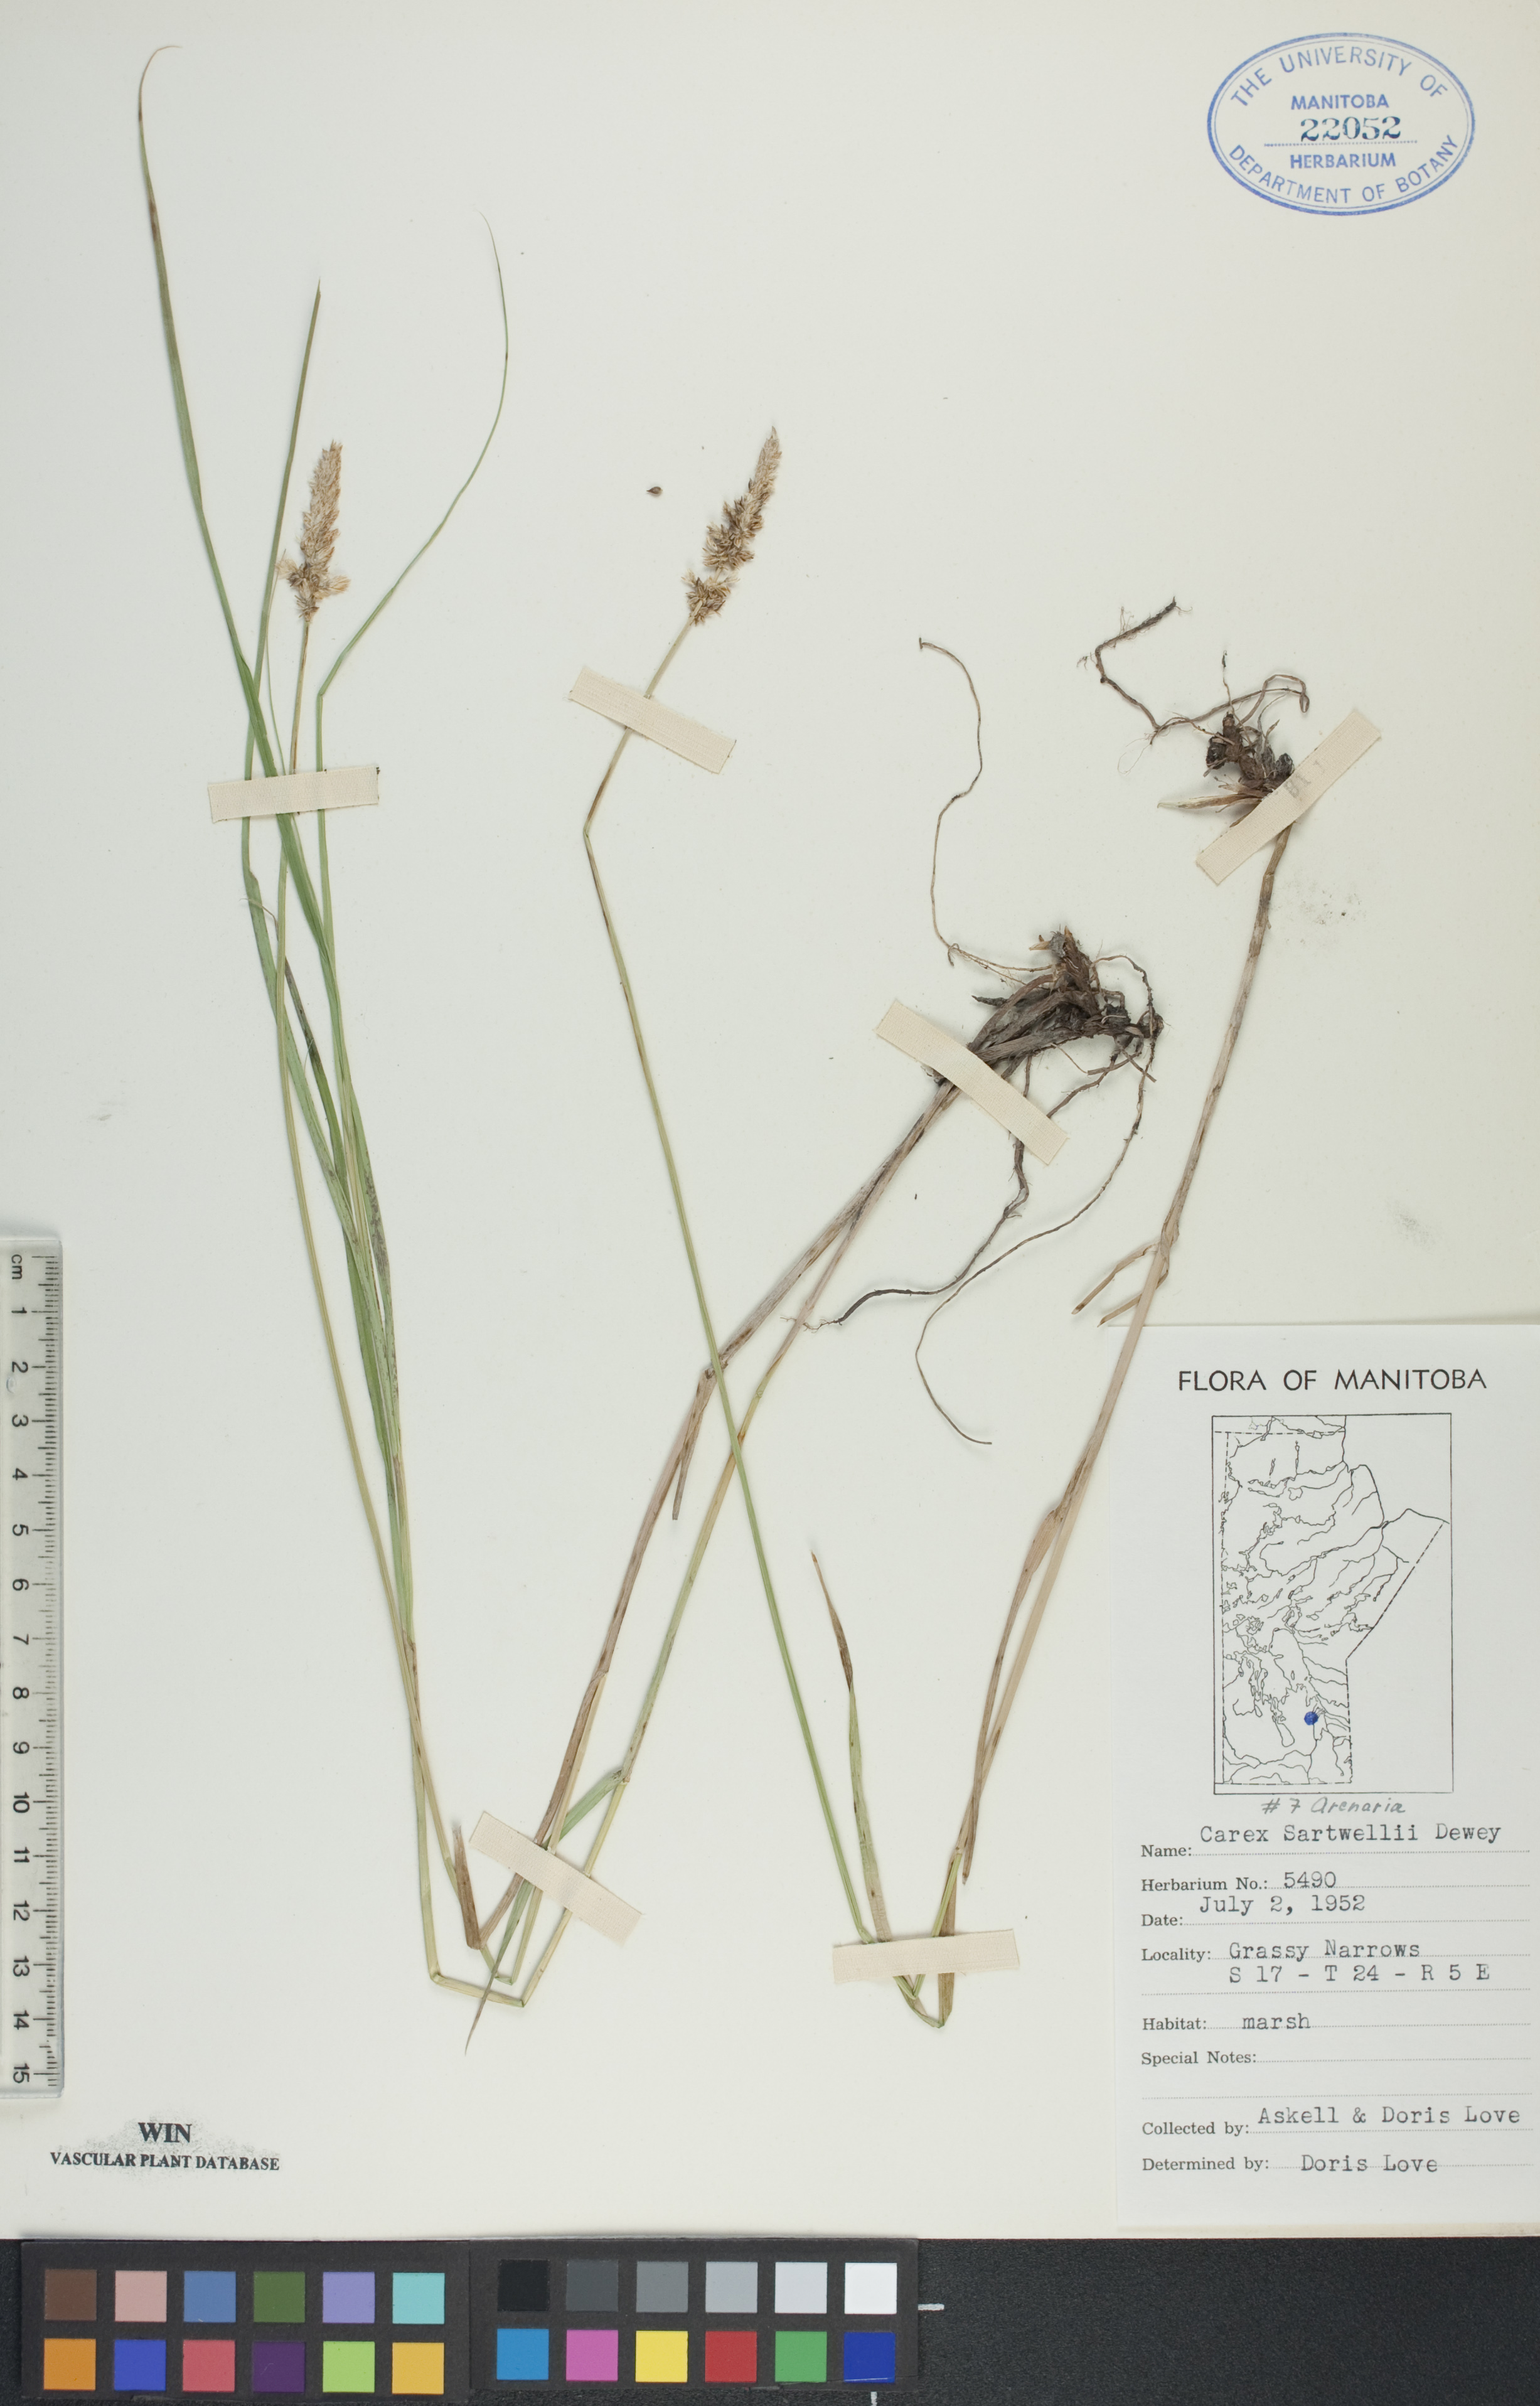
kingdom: Plantae
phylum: Tracheophyta
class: Liliopsida
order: Poales
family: Cyperaceae
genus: Carex
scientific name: Carex sartwellii
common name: Sartwell's sedge
